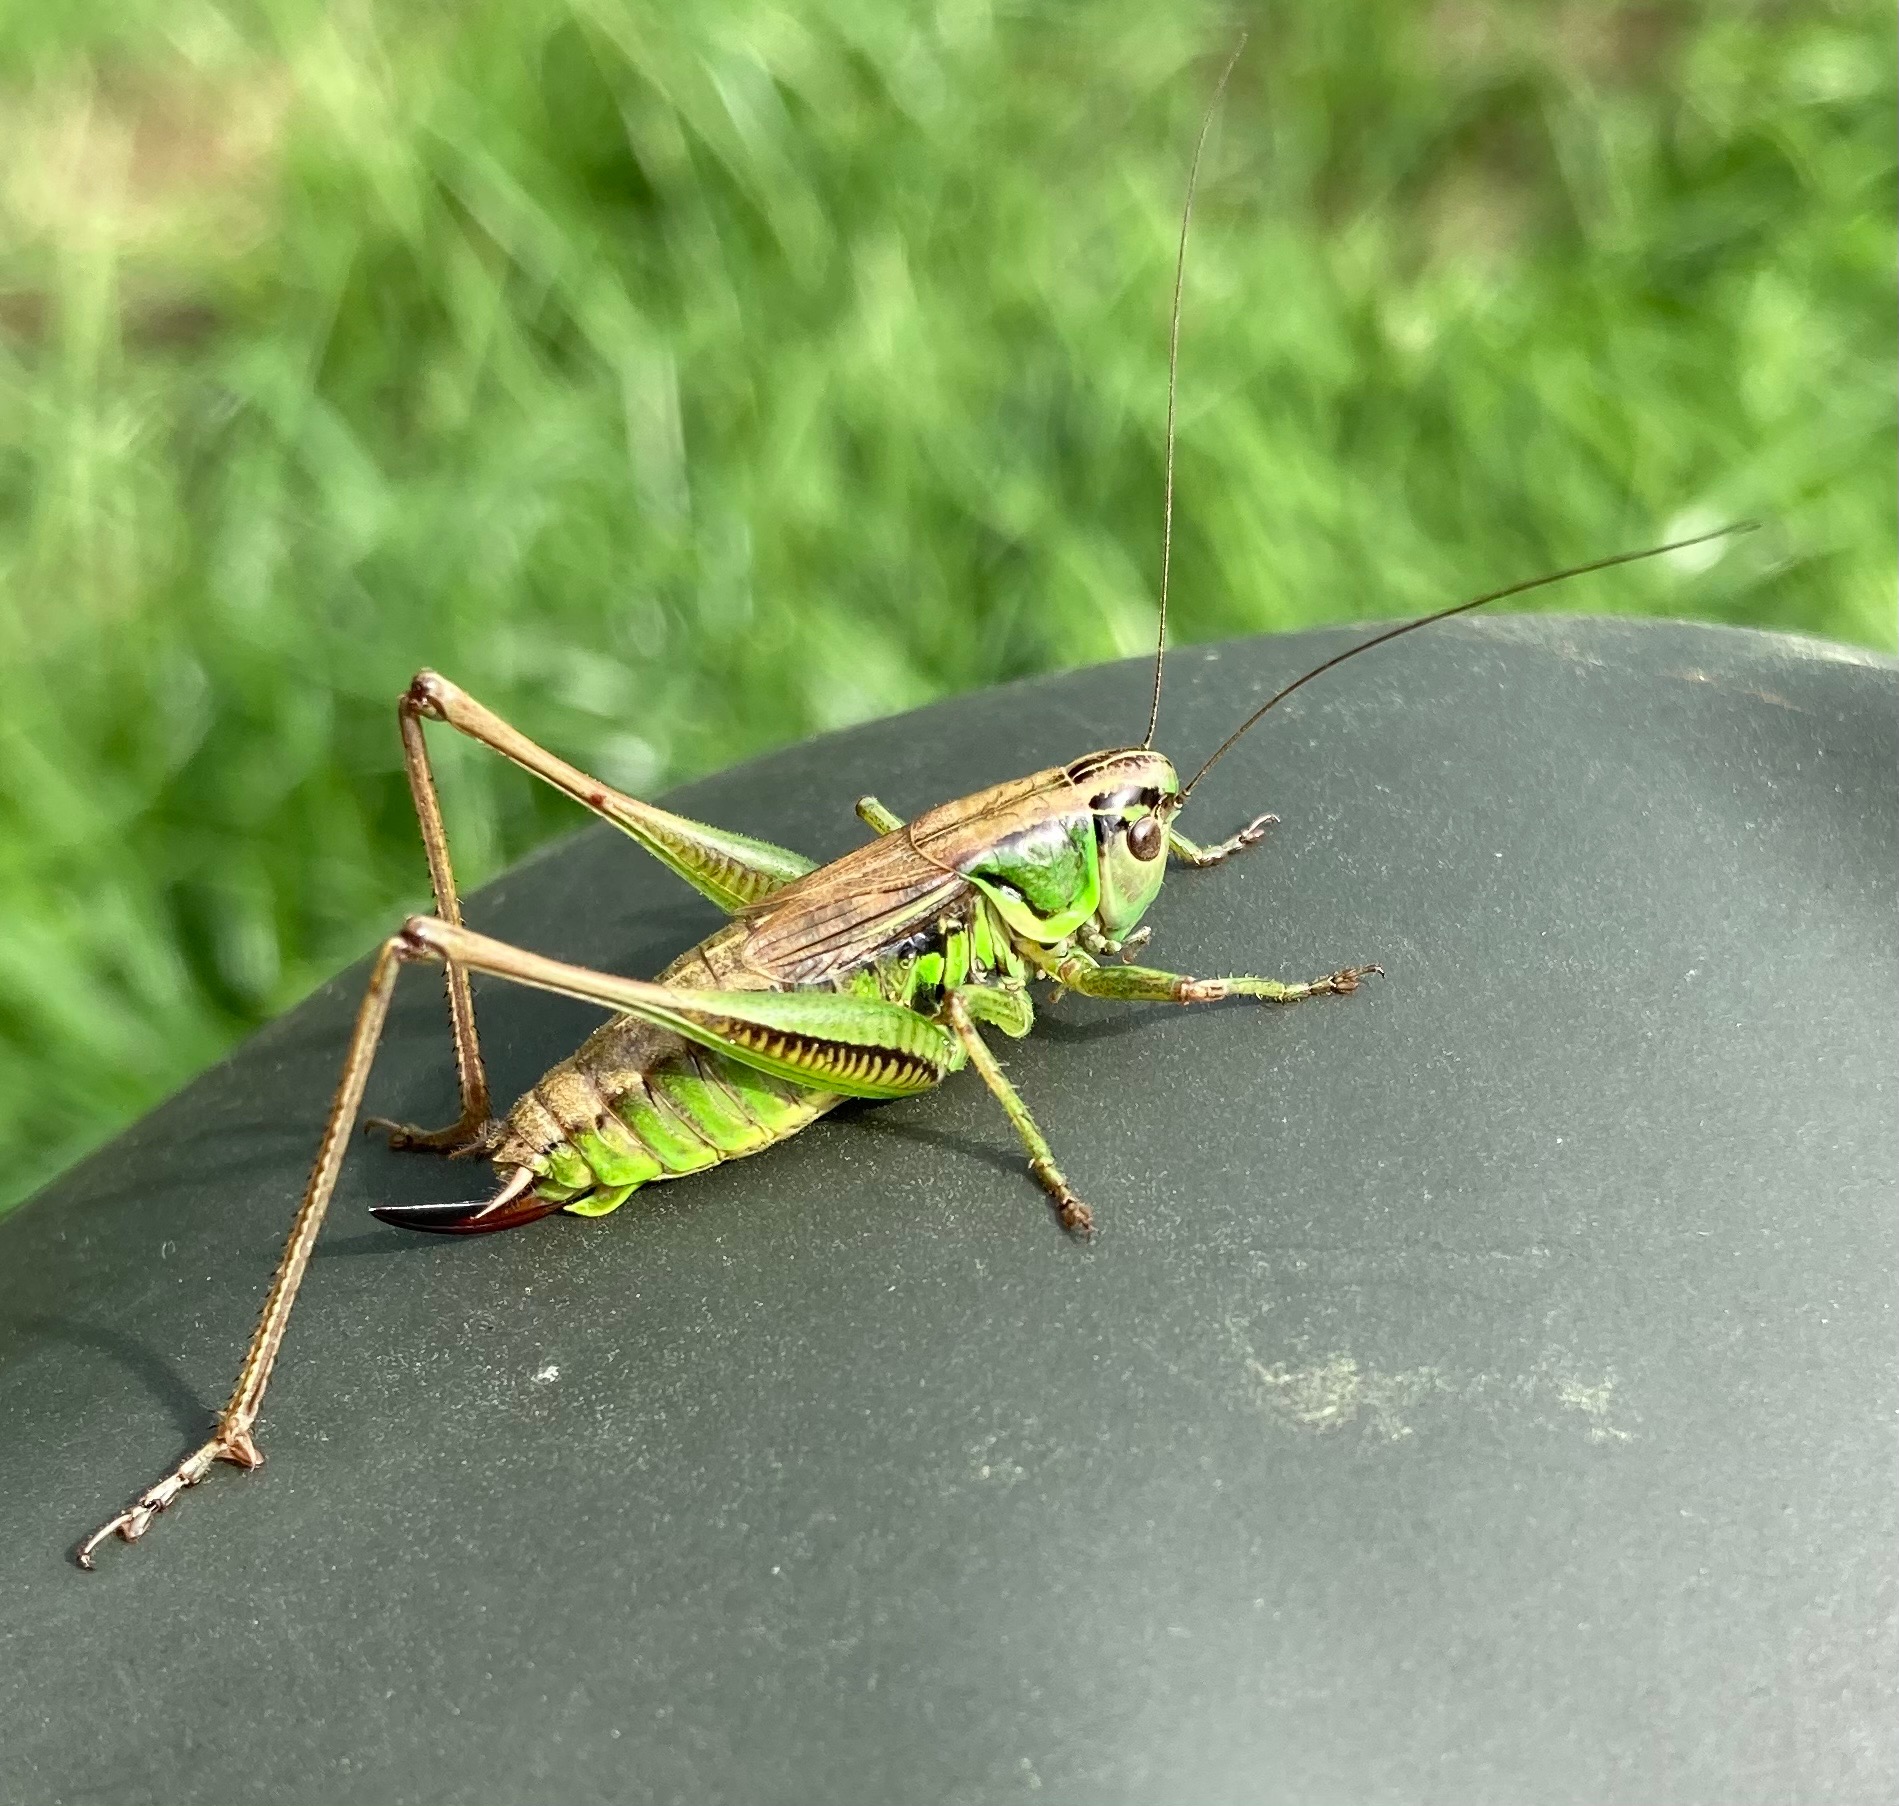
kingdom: Animalia
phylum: Arthropoda
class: Insecta
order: Orthoptera
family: Tettigoniidae
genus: Roeseliana
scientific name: Roeseliana roeselii
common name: Cikadegræshoppe
